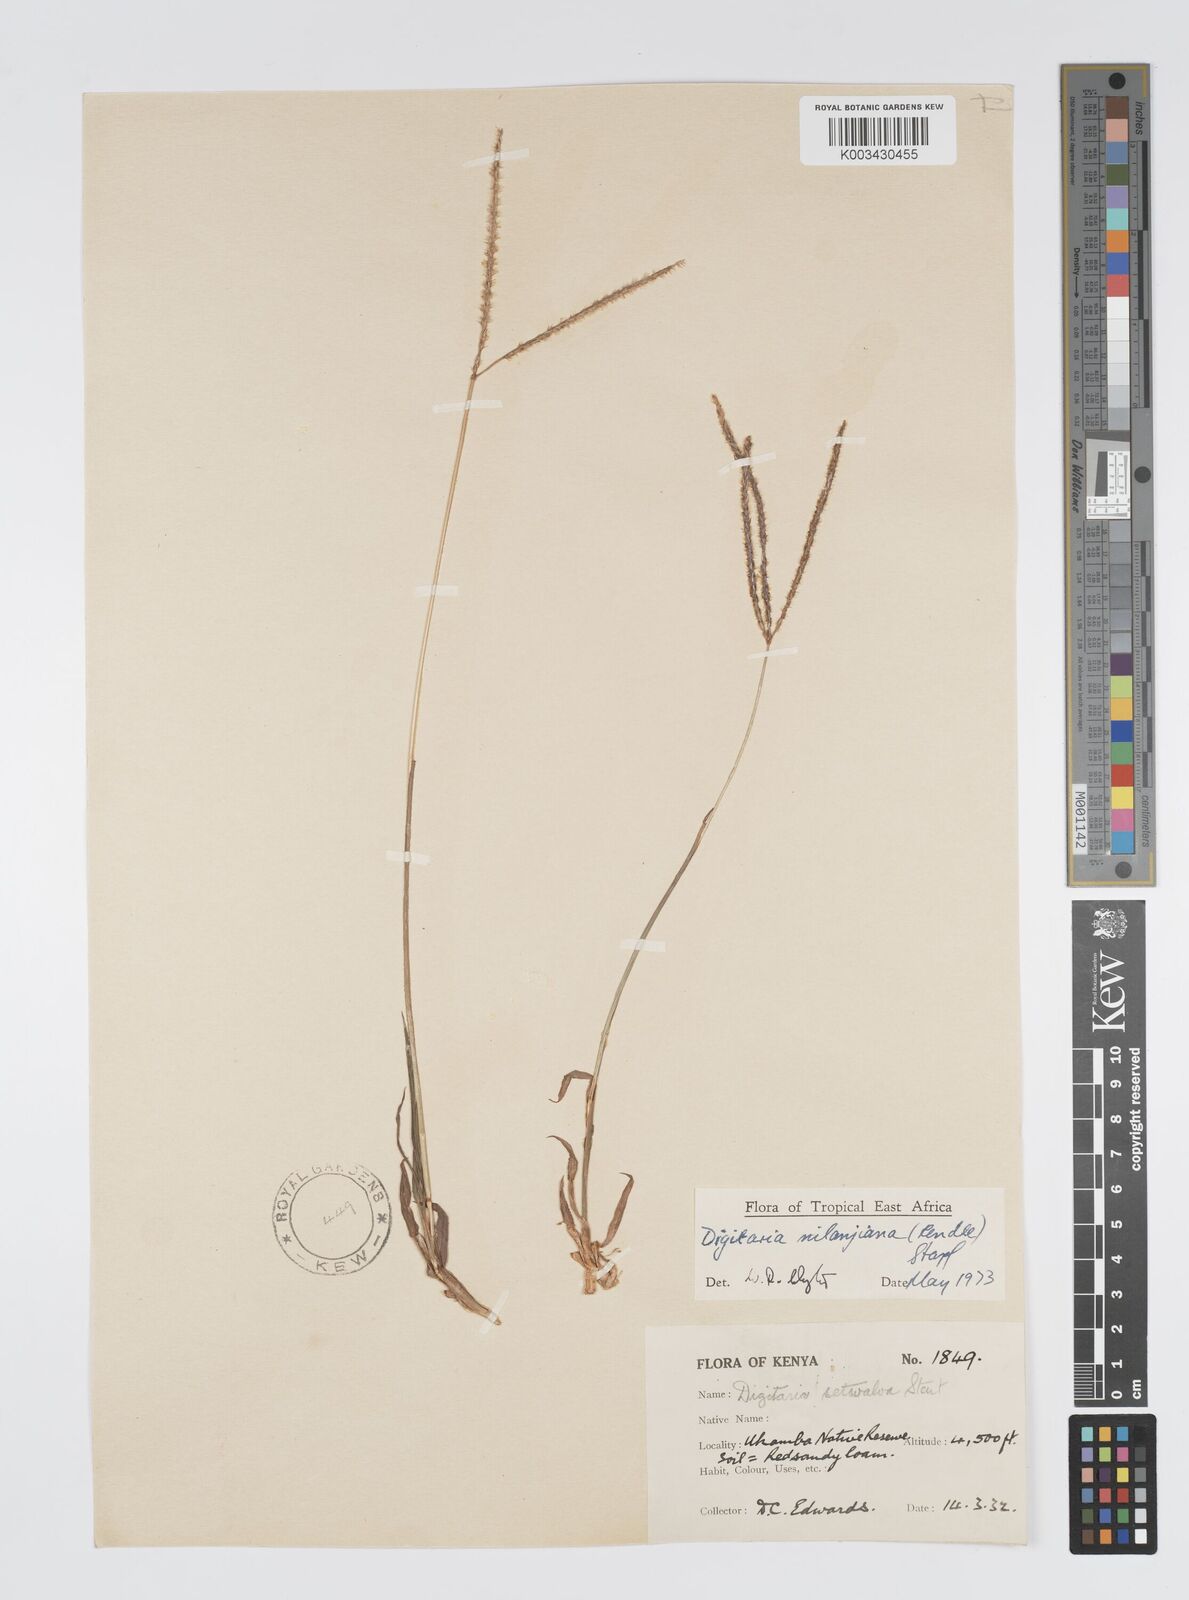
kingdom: Plantae
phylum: Tracheophyta
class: Liliopsida
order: Poales
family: Poaceae
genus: Digitaria
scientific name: Digitaria milanjiana
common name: Madagascar crabgrass
